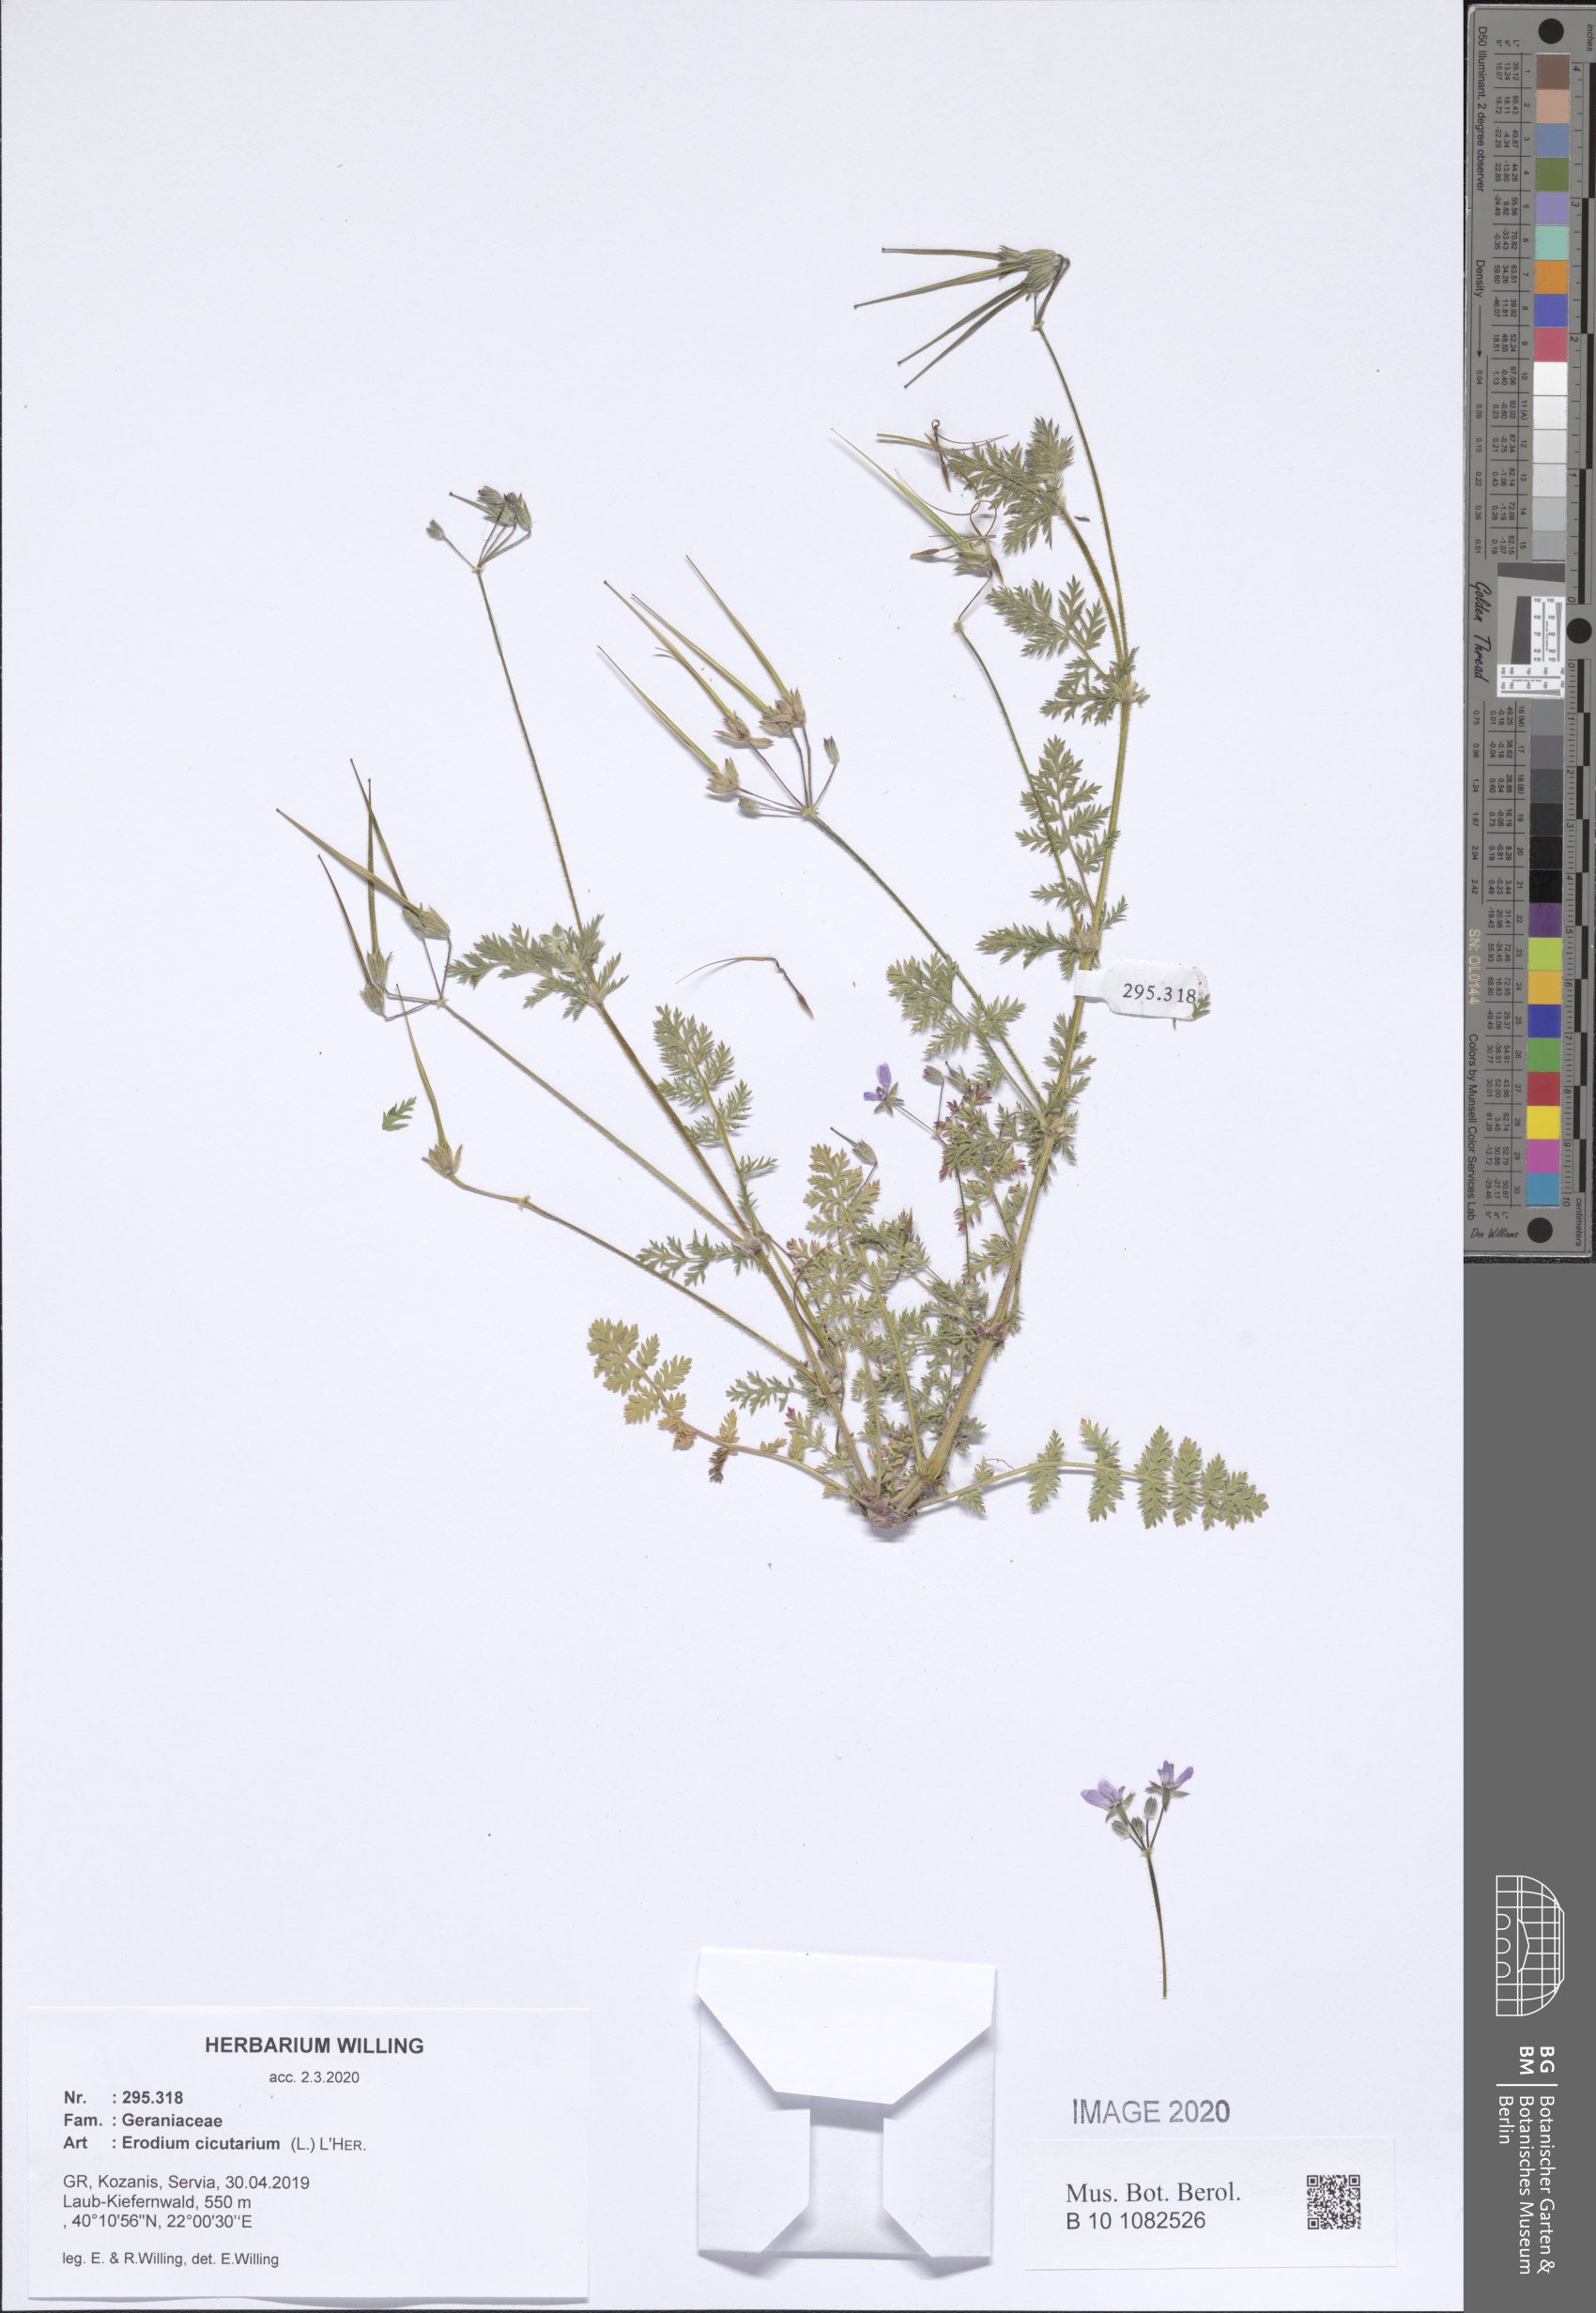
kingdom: Plantae
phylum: Tracheophyta
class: Magnoliopsida
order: Geraniales
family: Geraniaceae
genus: Erodium
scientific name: Erodium cicutarium
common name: Common stork's-bill
